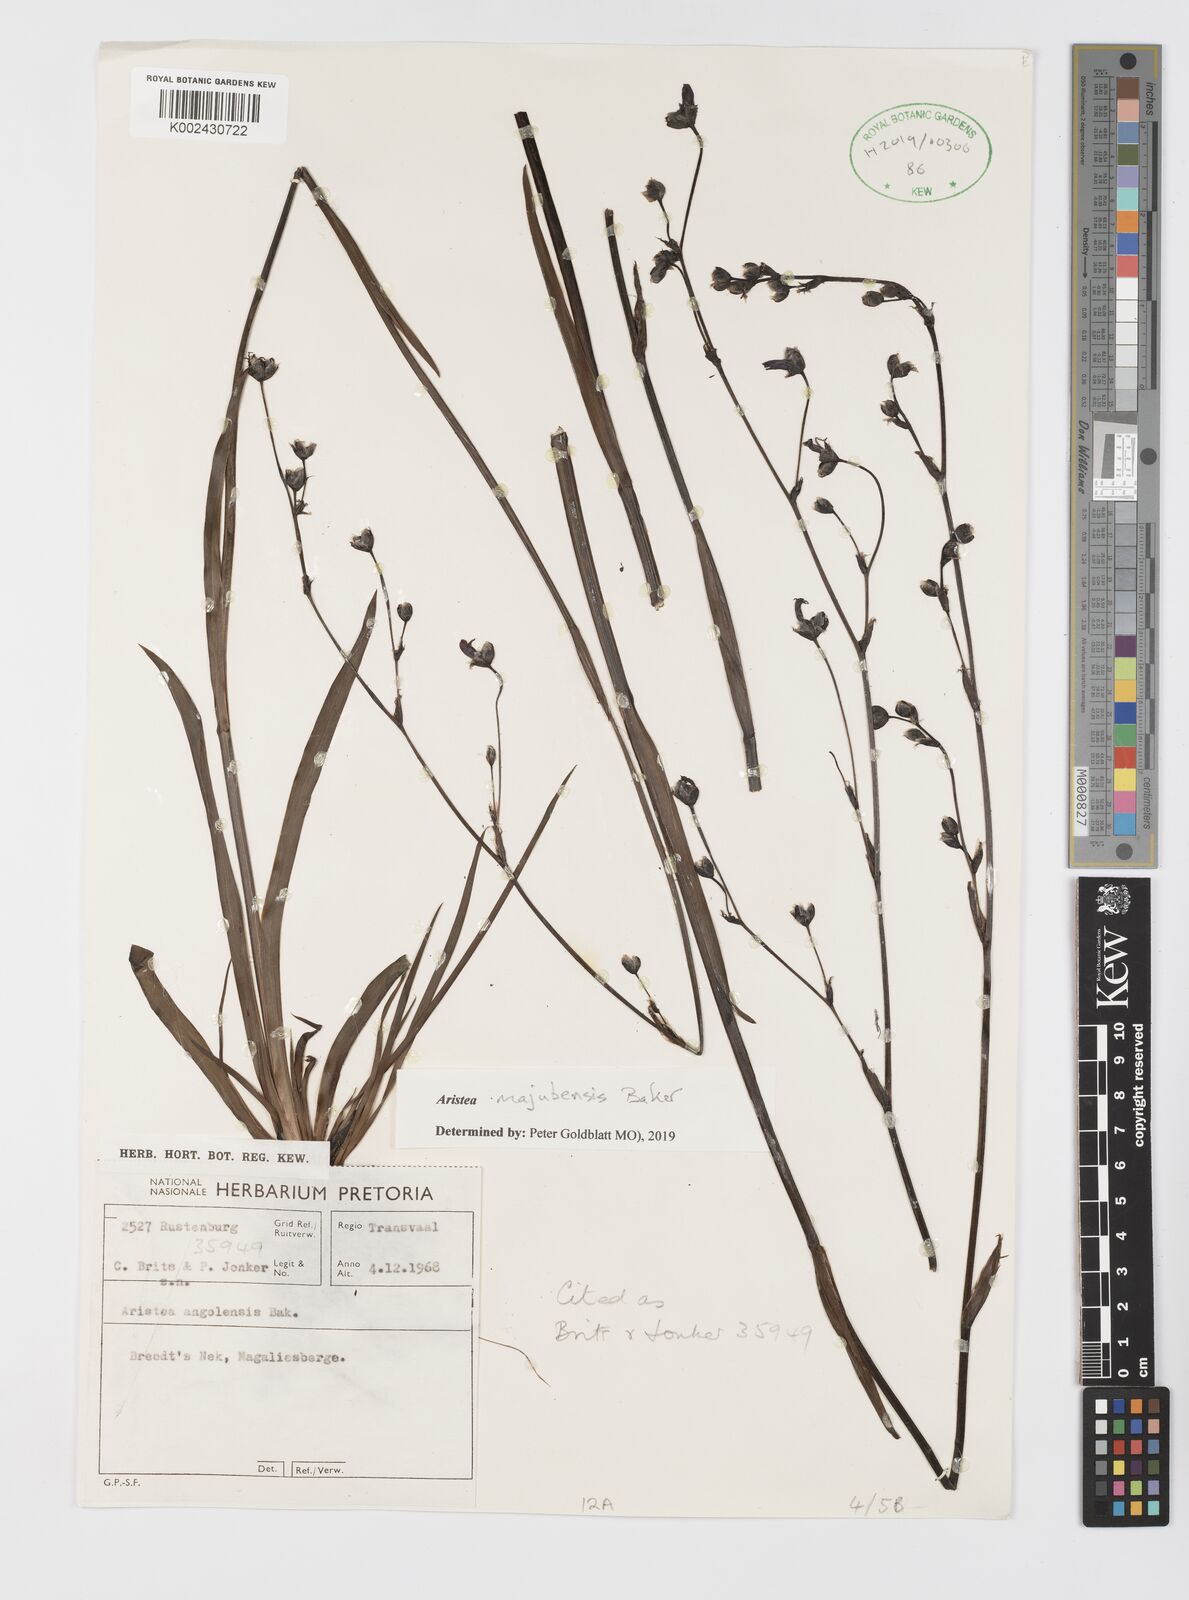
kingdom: Plantae
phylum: Tracheophyta
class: Liliopsida
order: Asparagales
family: Iridaceae
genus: Aristea
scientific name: Aristea majubensis
